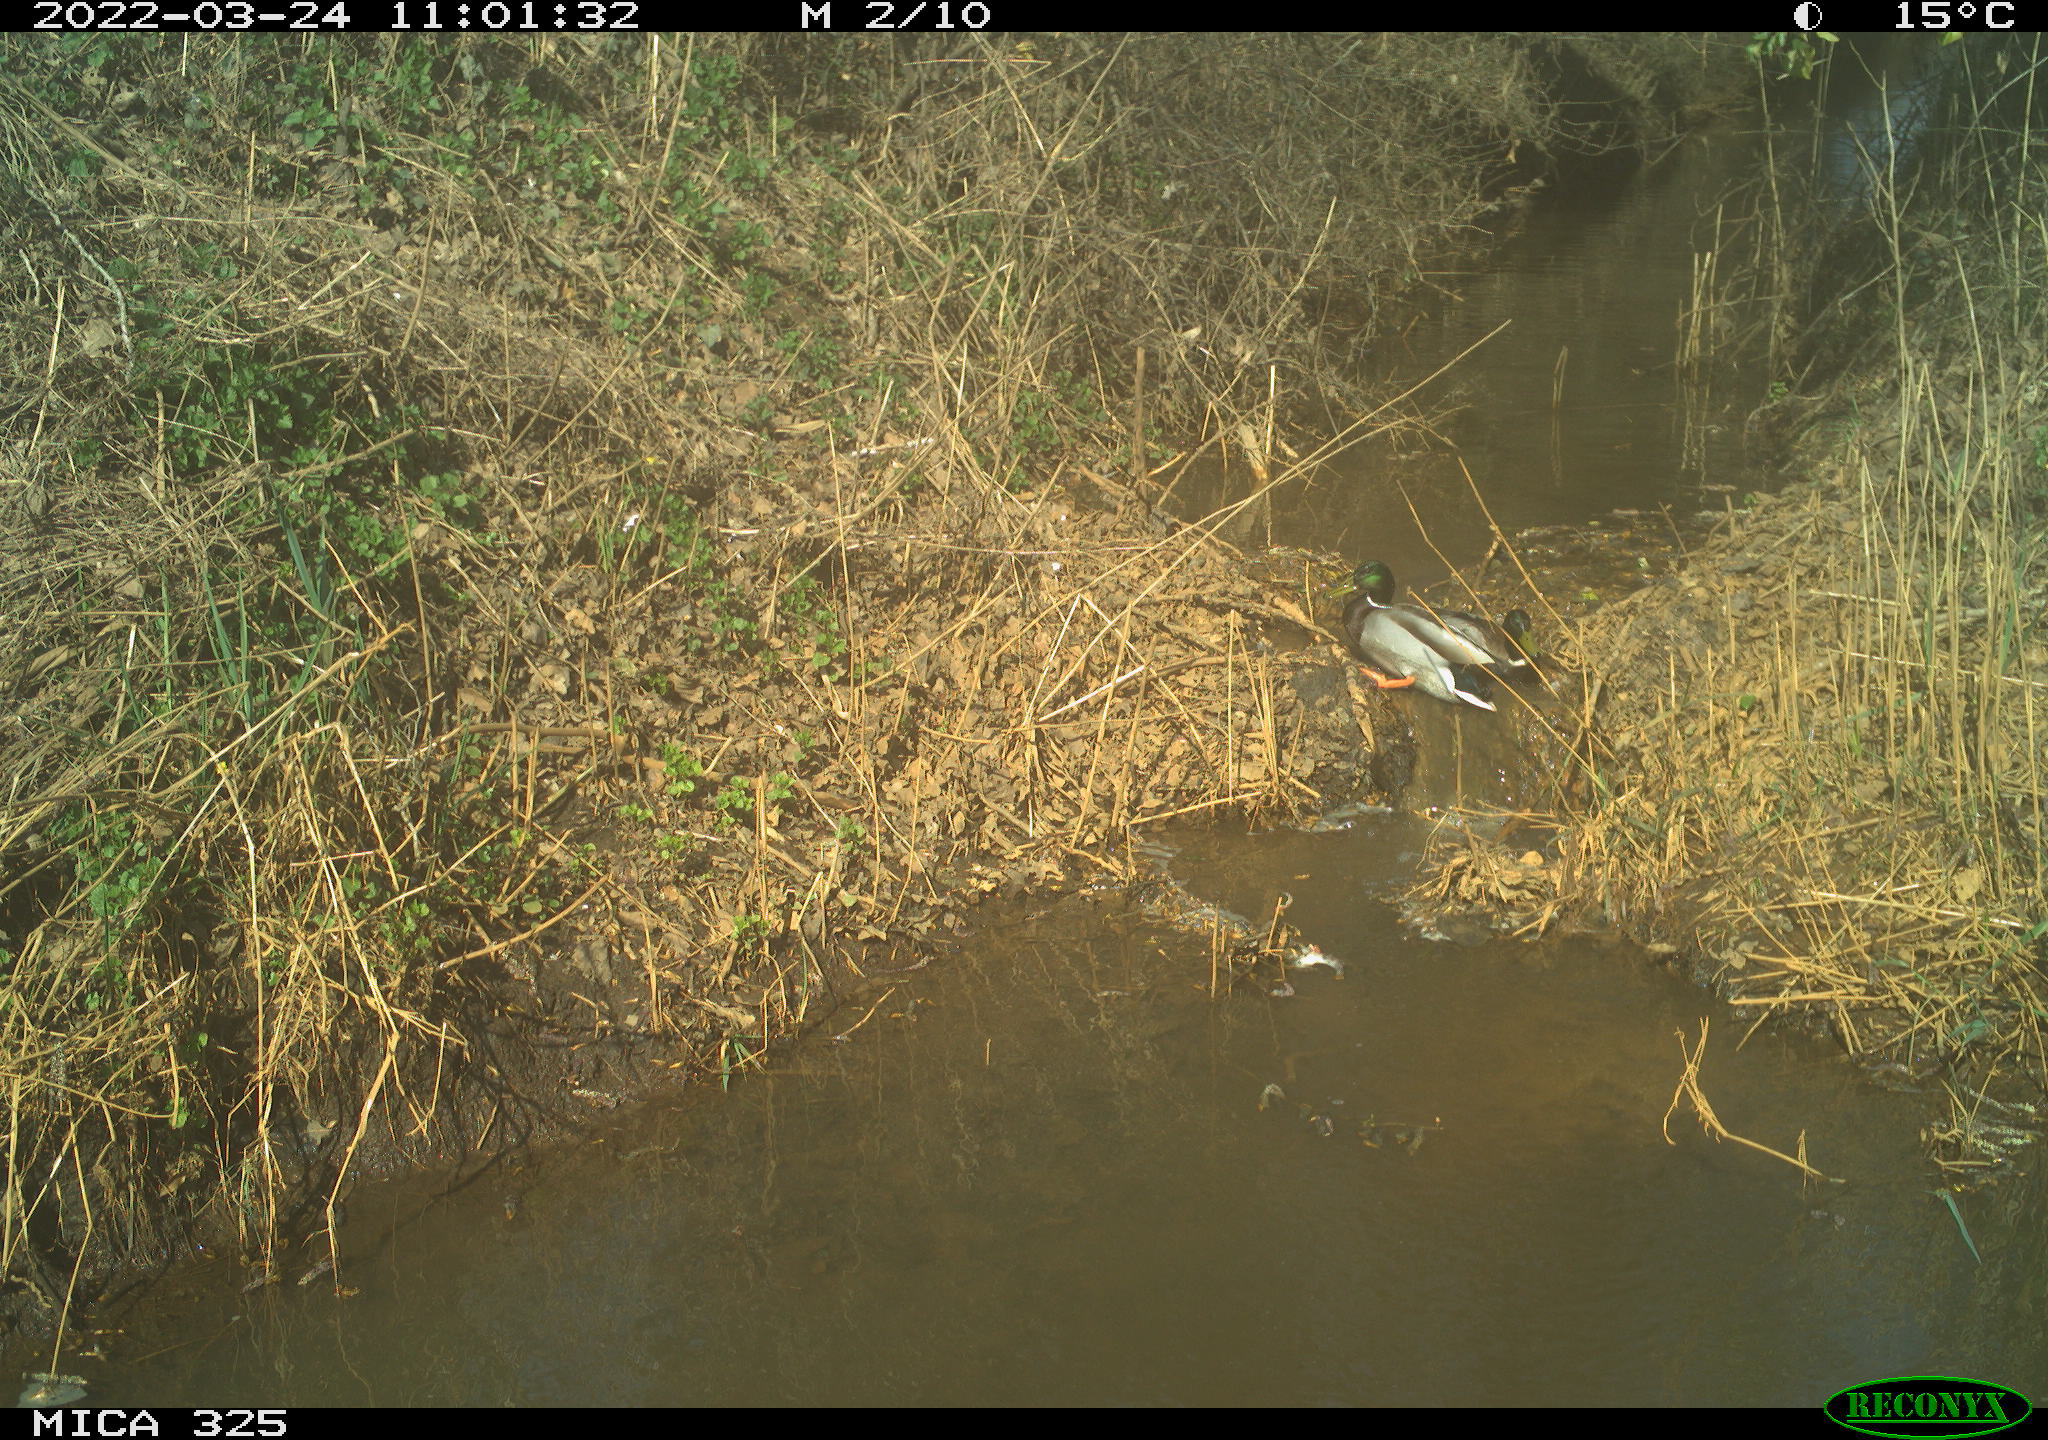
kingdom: Animalia
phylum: Chordata
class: Aves
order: Anseriformes
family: Anatidae
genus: Anas
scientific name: Anas platyrhynchos
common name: Mallard
